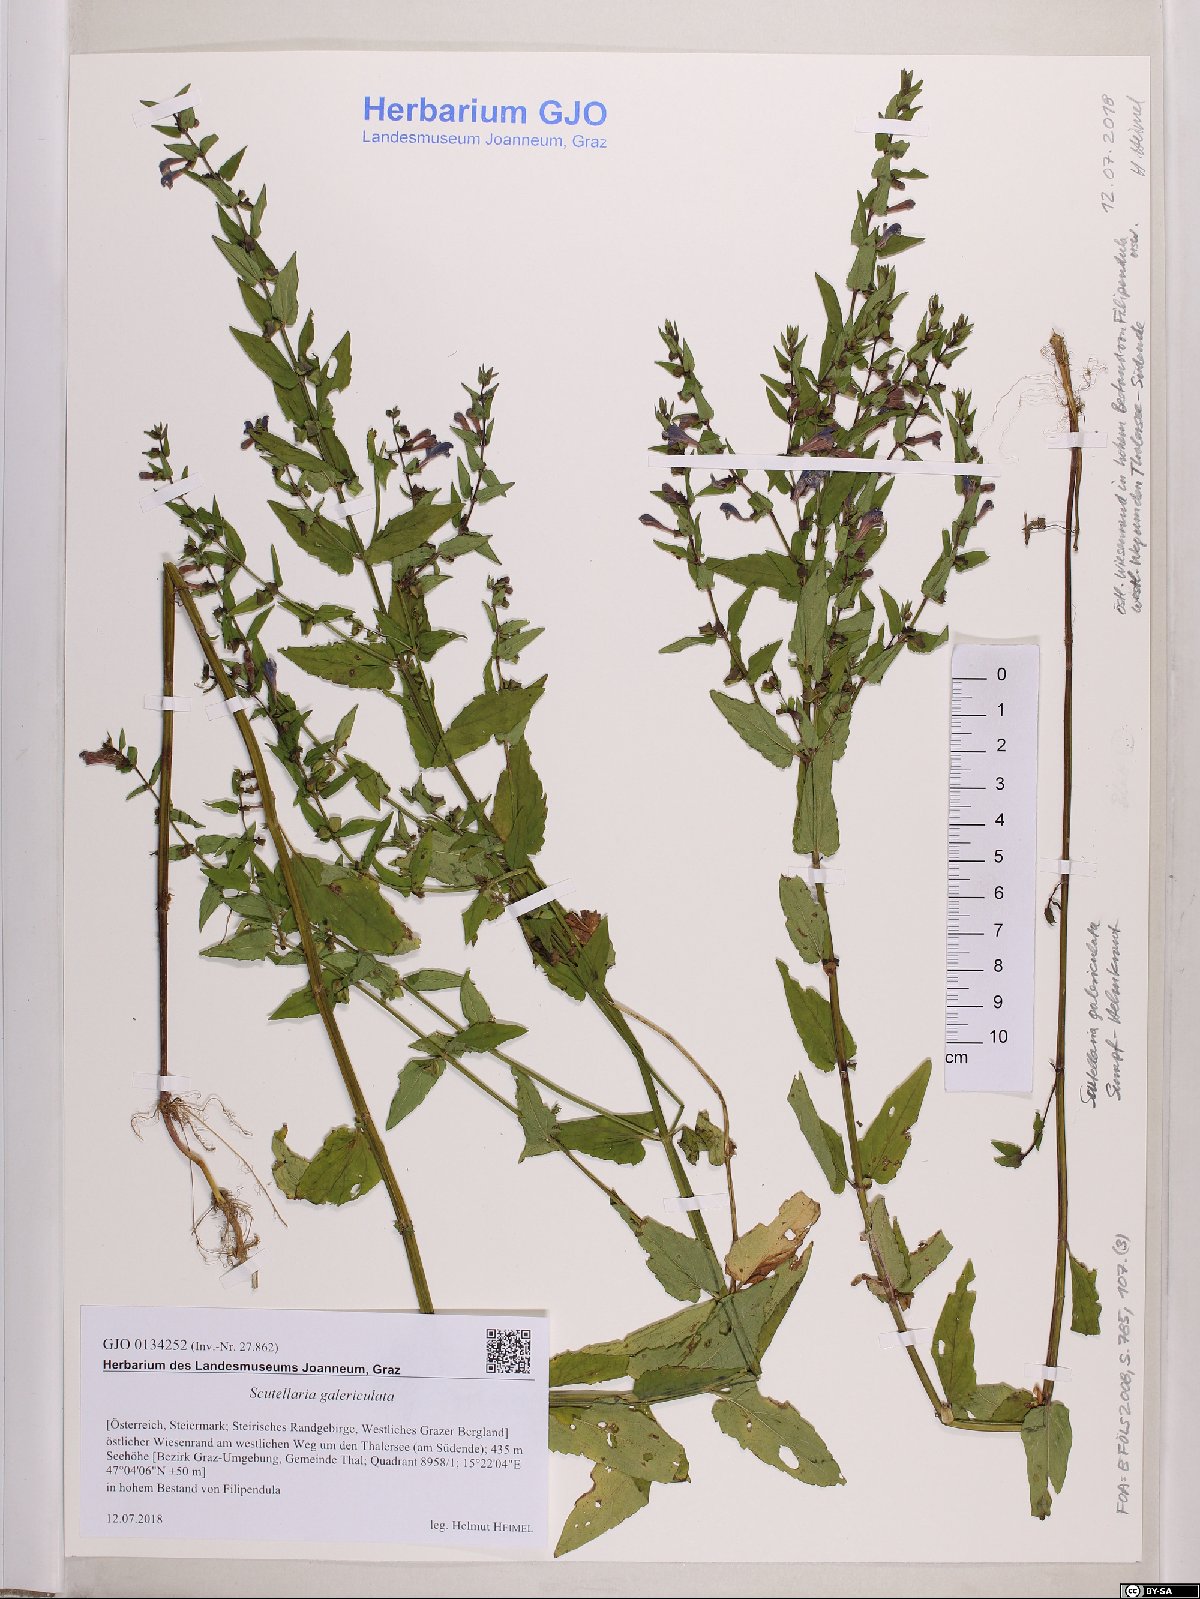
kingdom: Plantae
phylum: Tracheophyta
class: Magnoliopsida
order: Lamiales
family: Lamiaceae
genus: Scutellaria
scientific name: Scutellaria galericulata
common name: Skullcap
